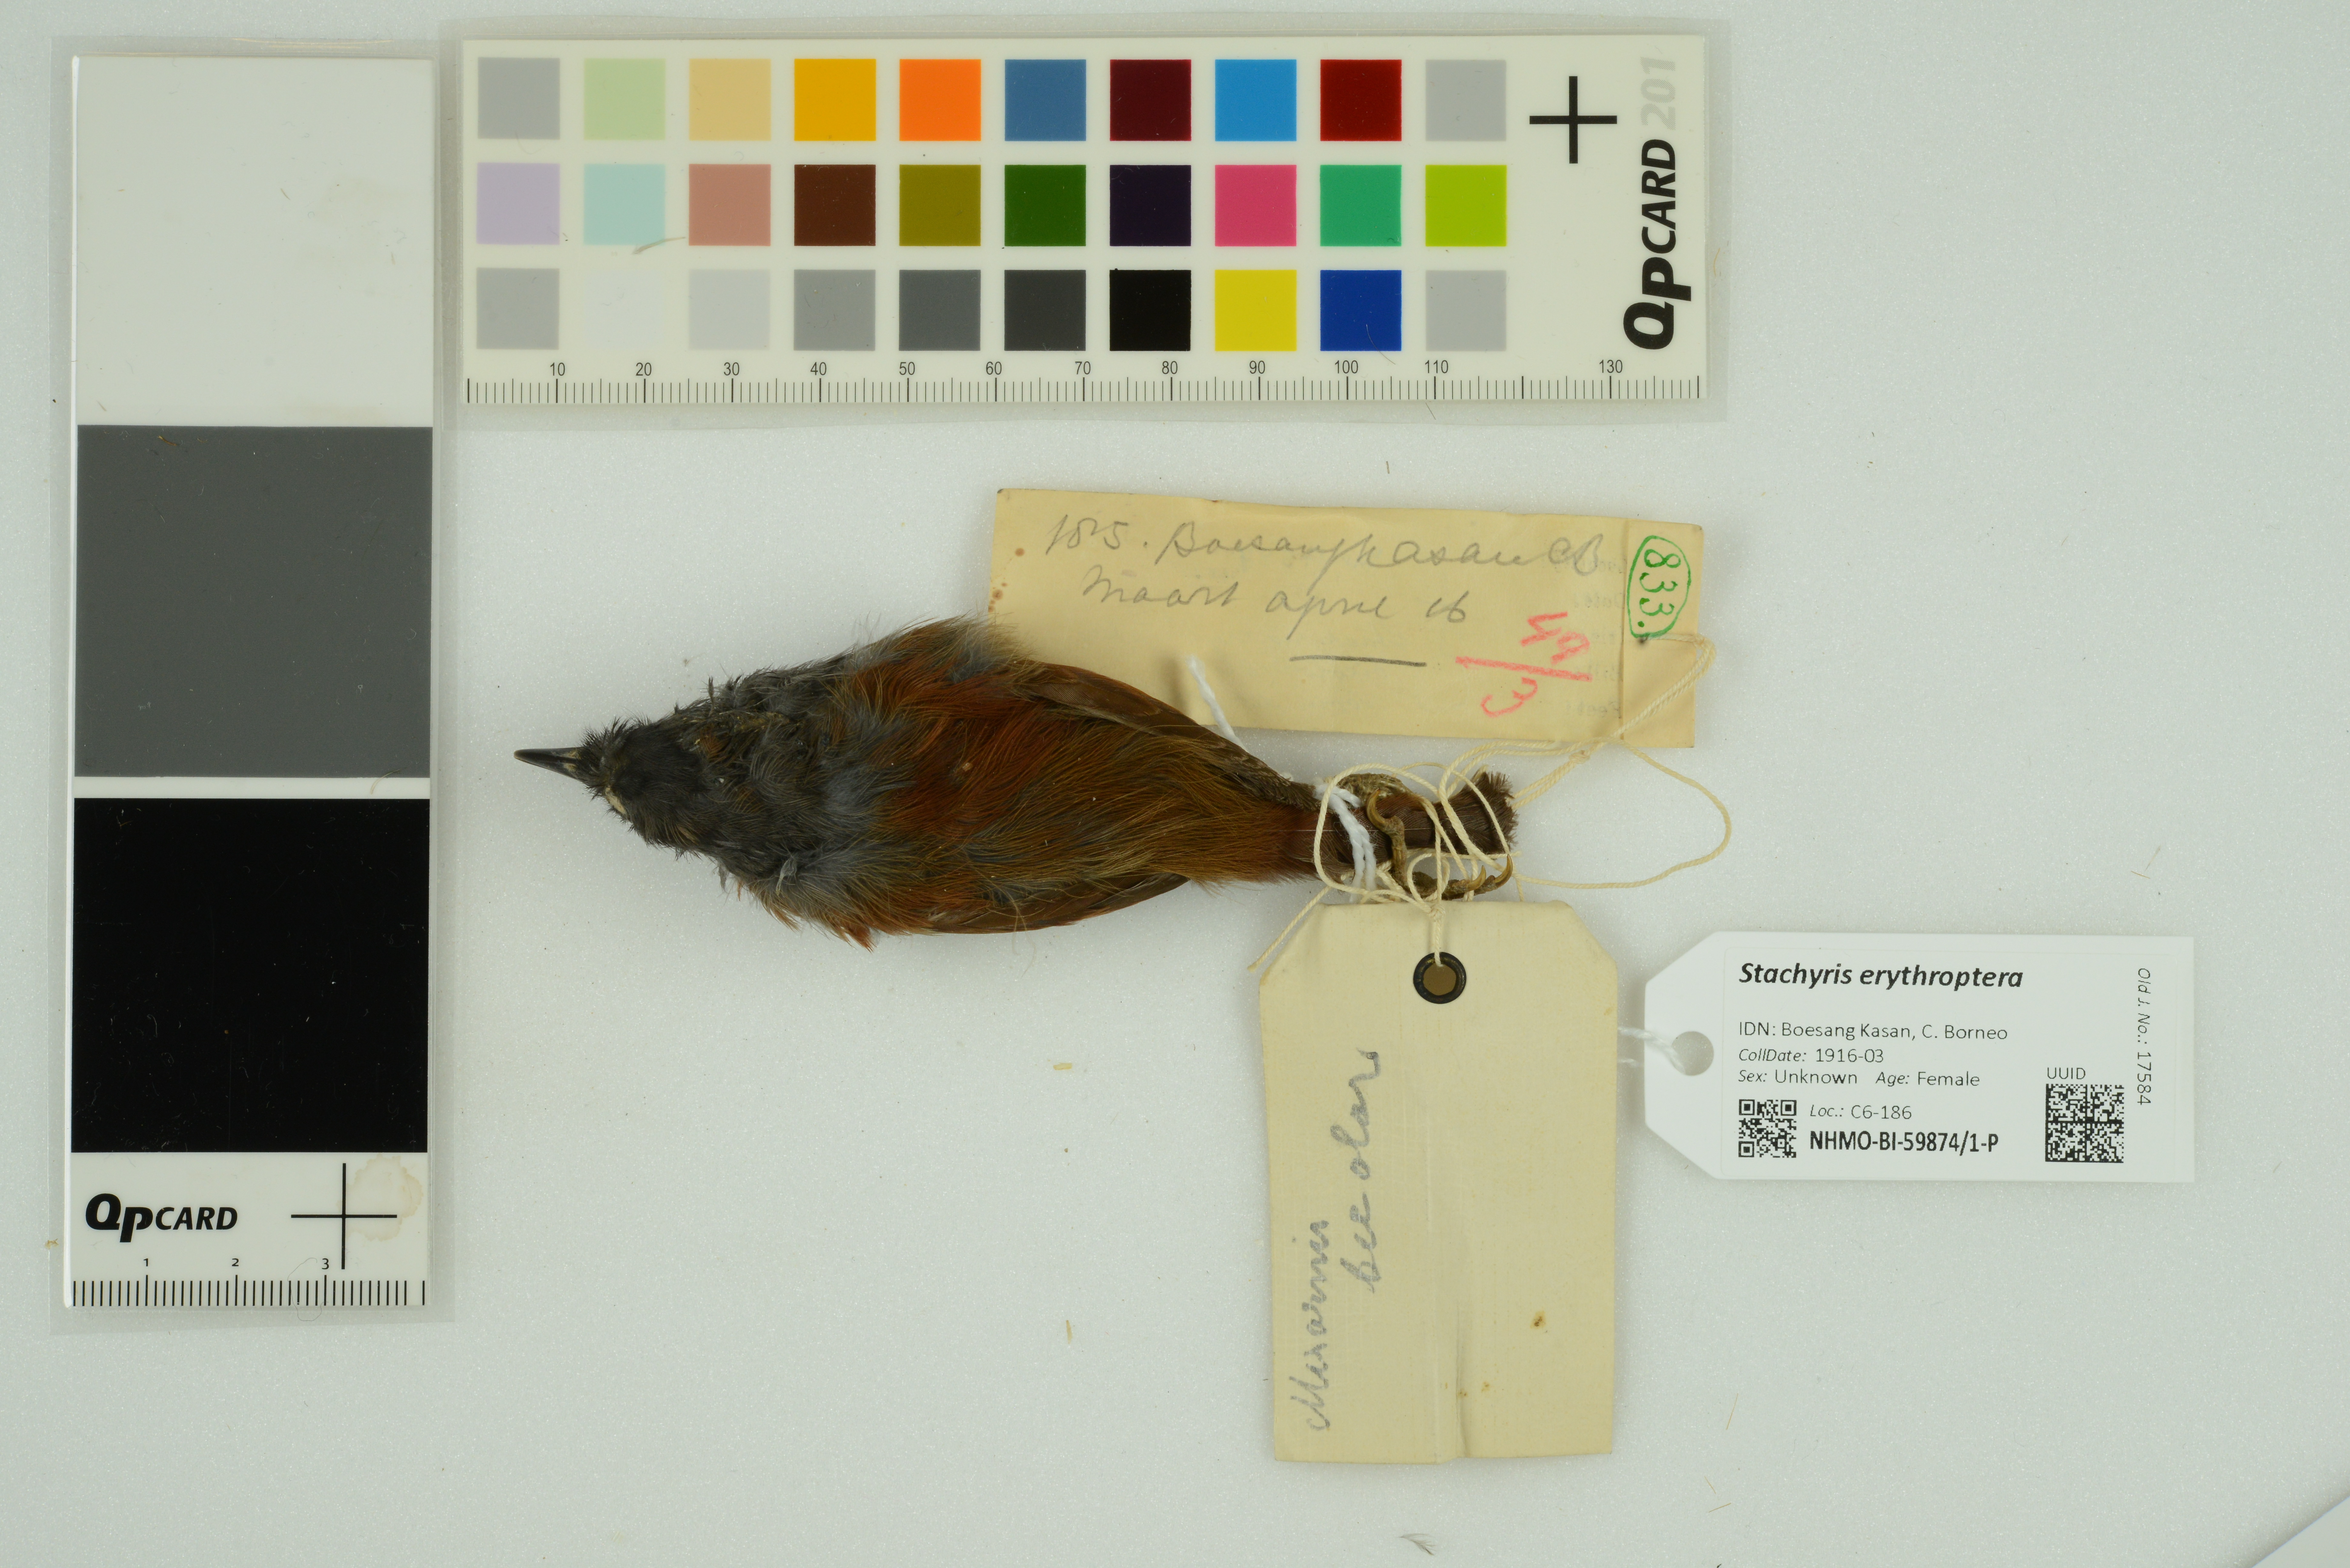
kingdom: Animalia
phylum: Chordata
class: Aves
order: Passeriformes
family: Timaliidae
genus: Stachyris
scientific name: Stachyris erythroptera
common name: Chestnut-winged babbler
